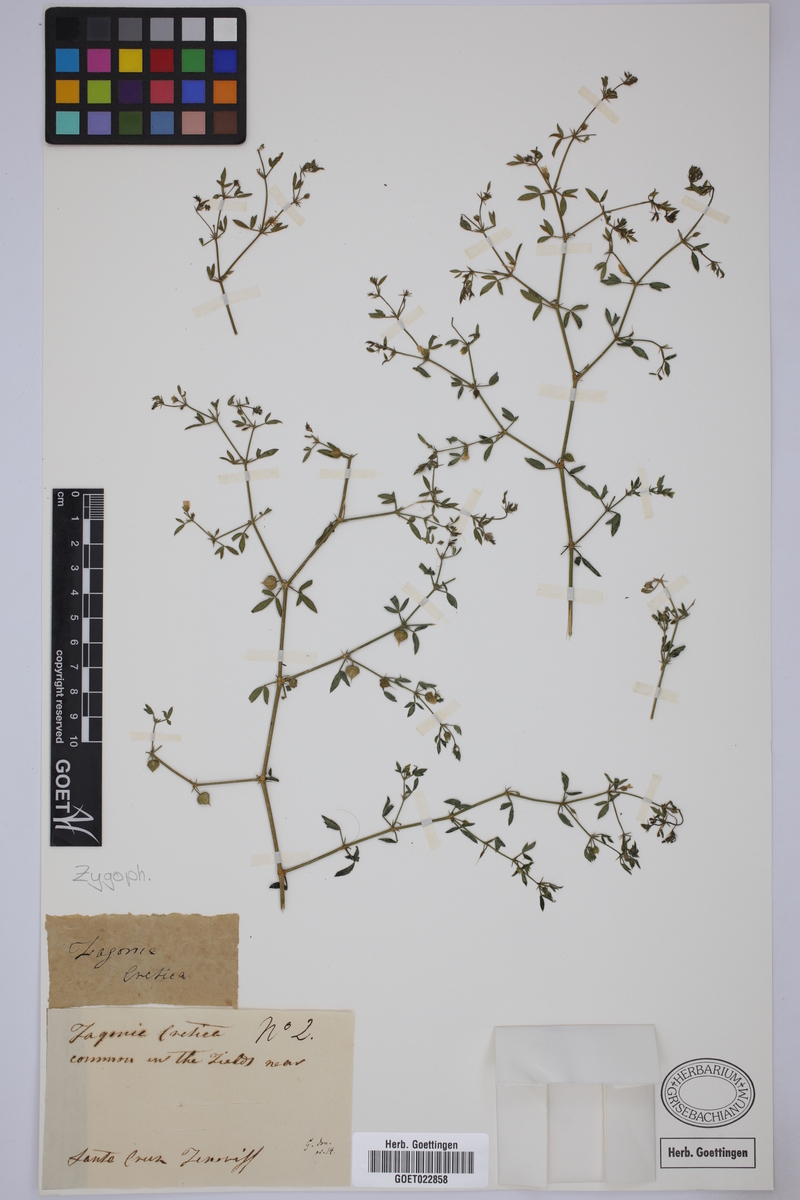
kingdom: Plantae
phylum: Tracheophyta
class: Magnoliopsida
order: Zygophyllales
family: Zygophyllaceae
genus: Fagonia
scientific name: Fagonia cretica
